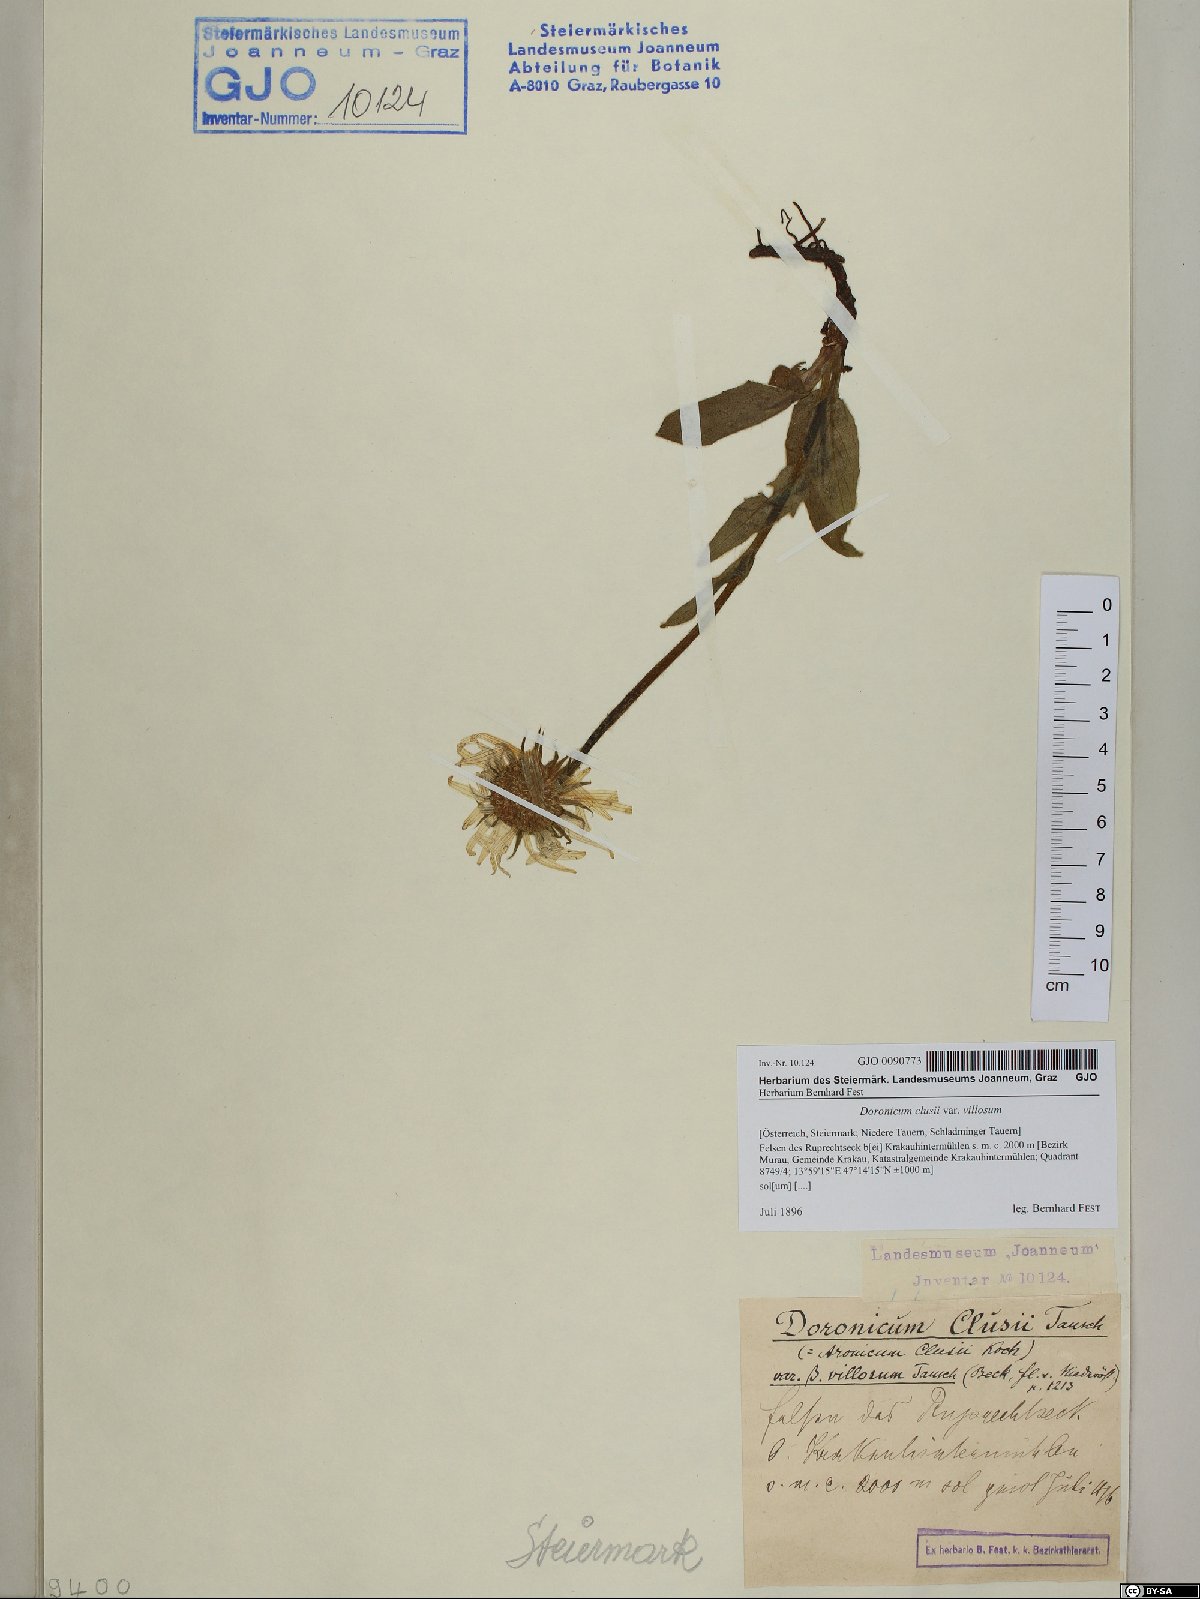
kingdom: Plantae
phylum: Tracheophyta
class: Magnoliopsida
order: Asterales
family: Asteraceae
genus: Doronicum
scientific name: Doronicum clusii
